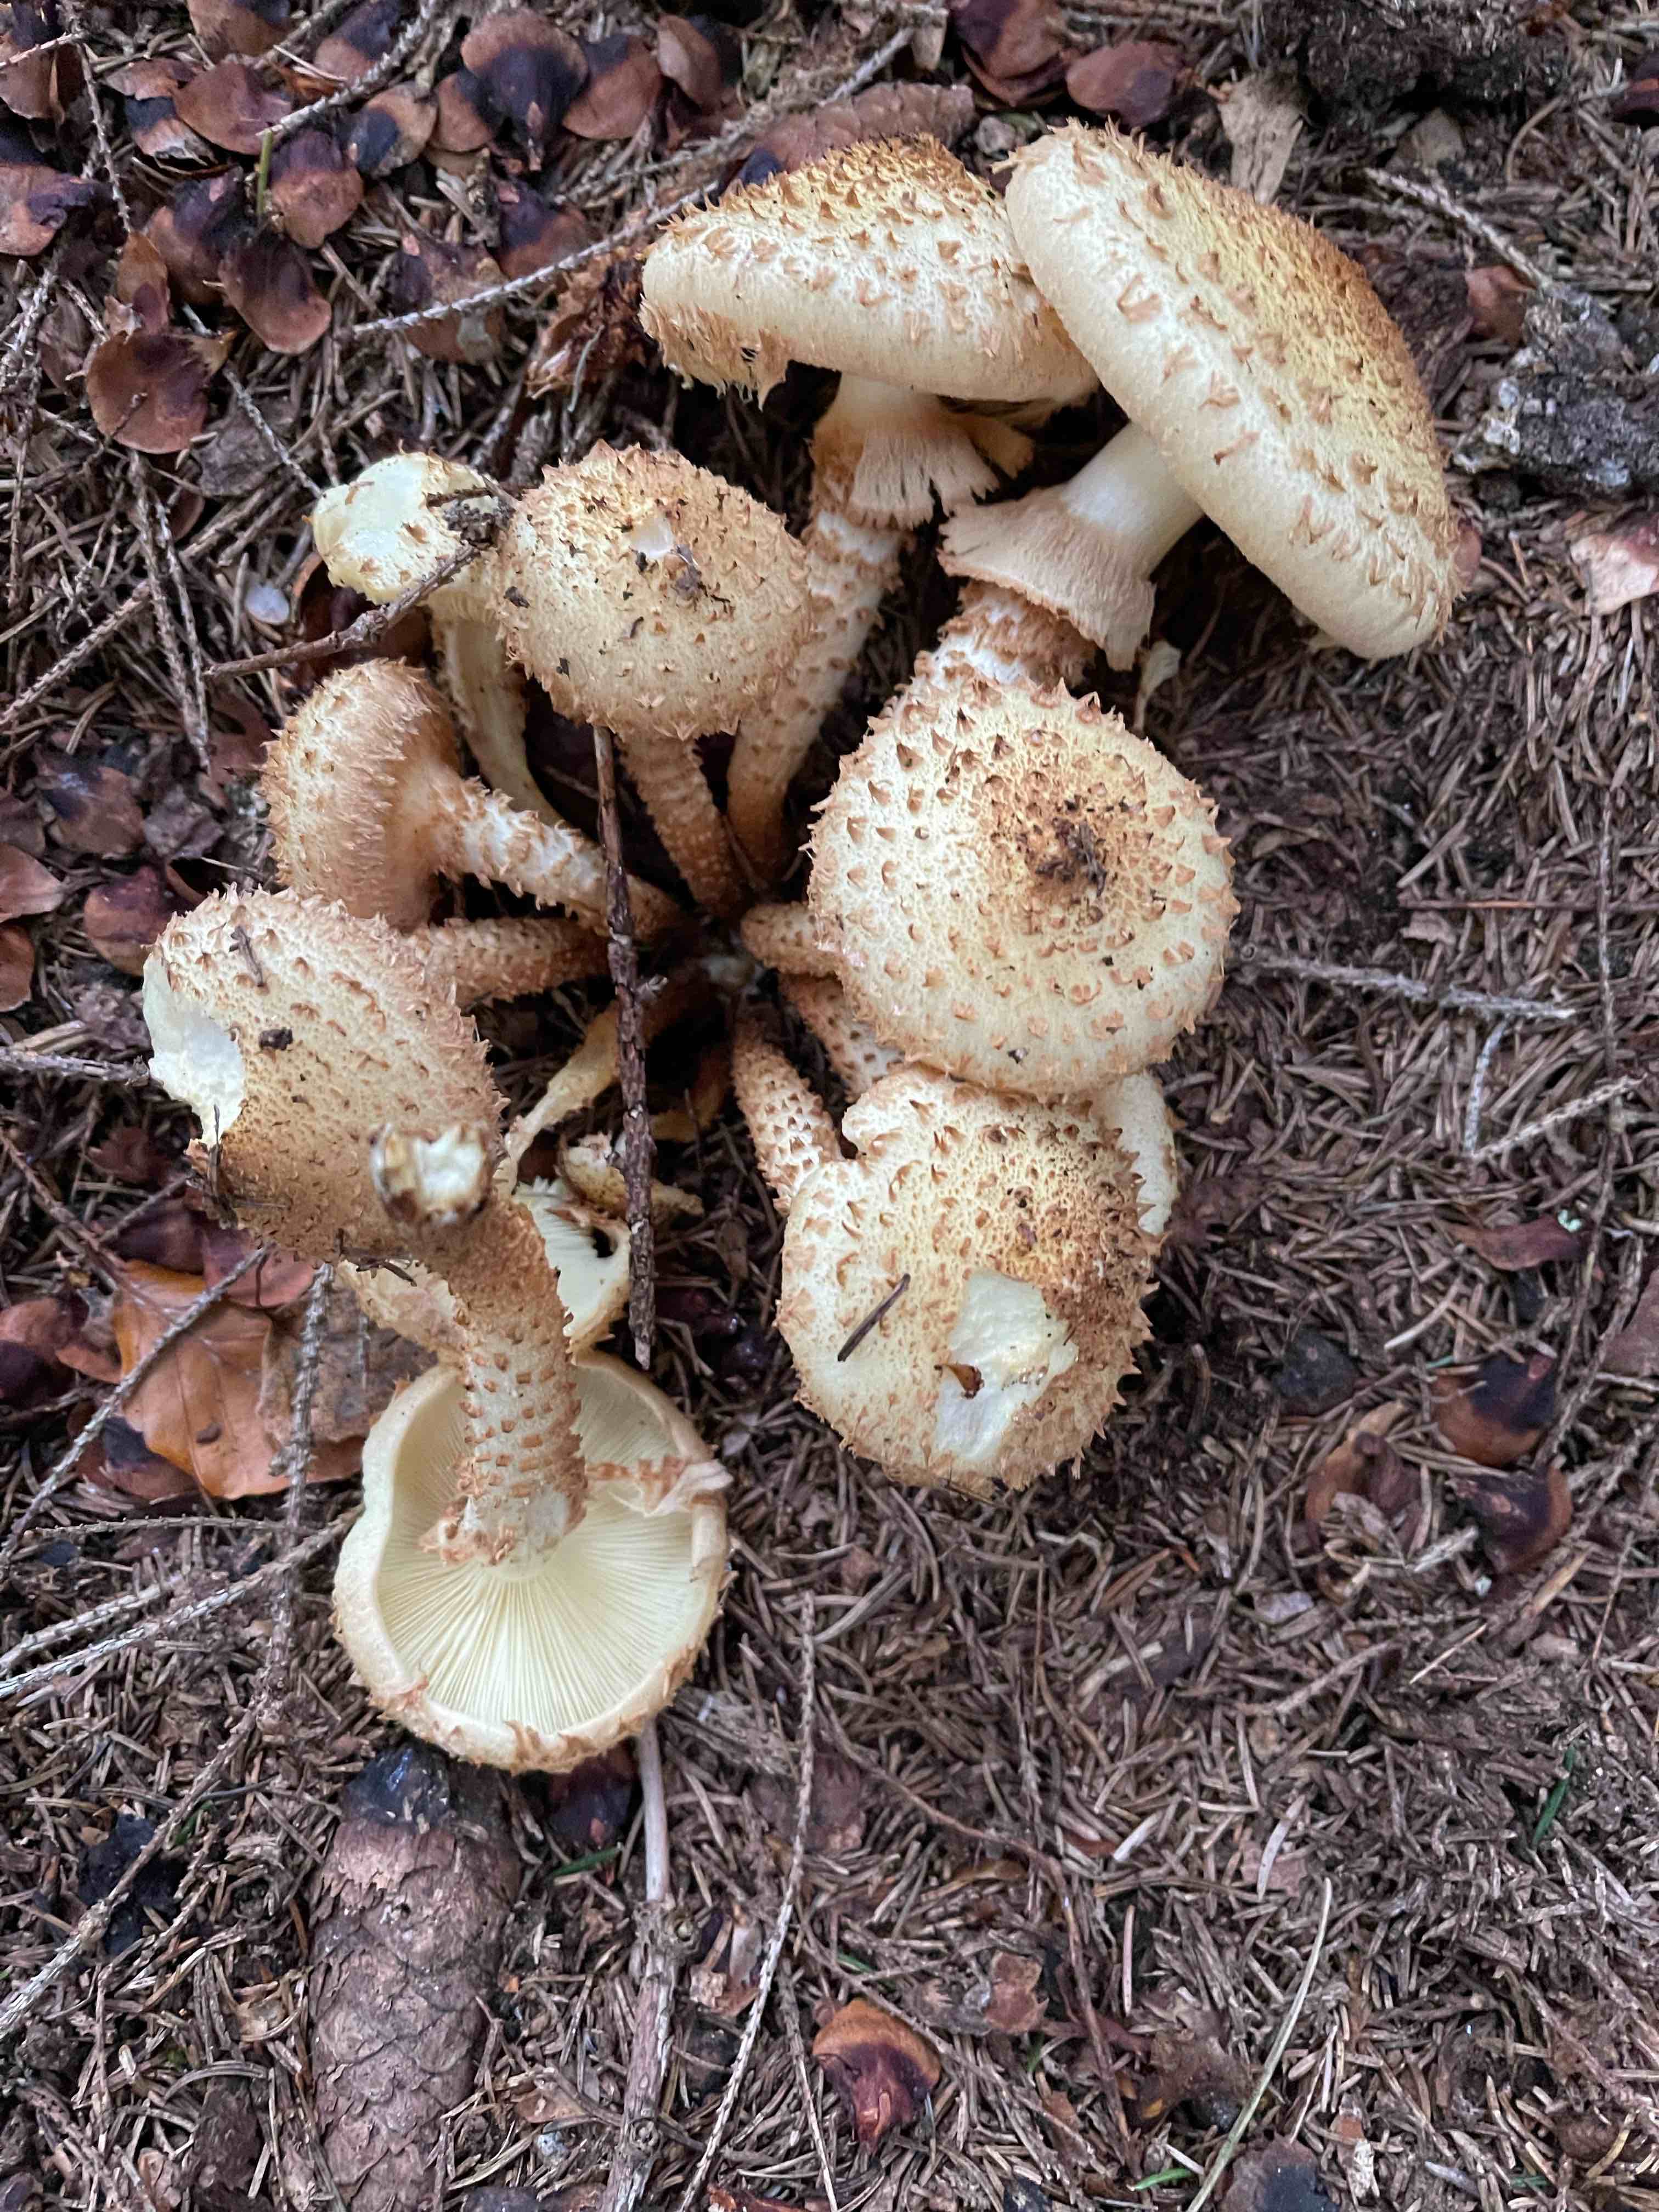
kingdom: Fungi
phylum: Basidiomycota
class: Agaricomycetes
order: Agaricales
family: Strophariaceae
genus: Pholiota
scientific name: Pholiota squarrosa
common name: krumskællet skælhat
